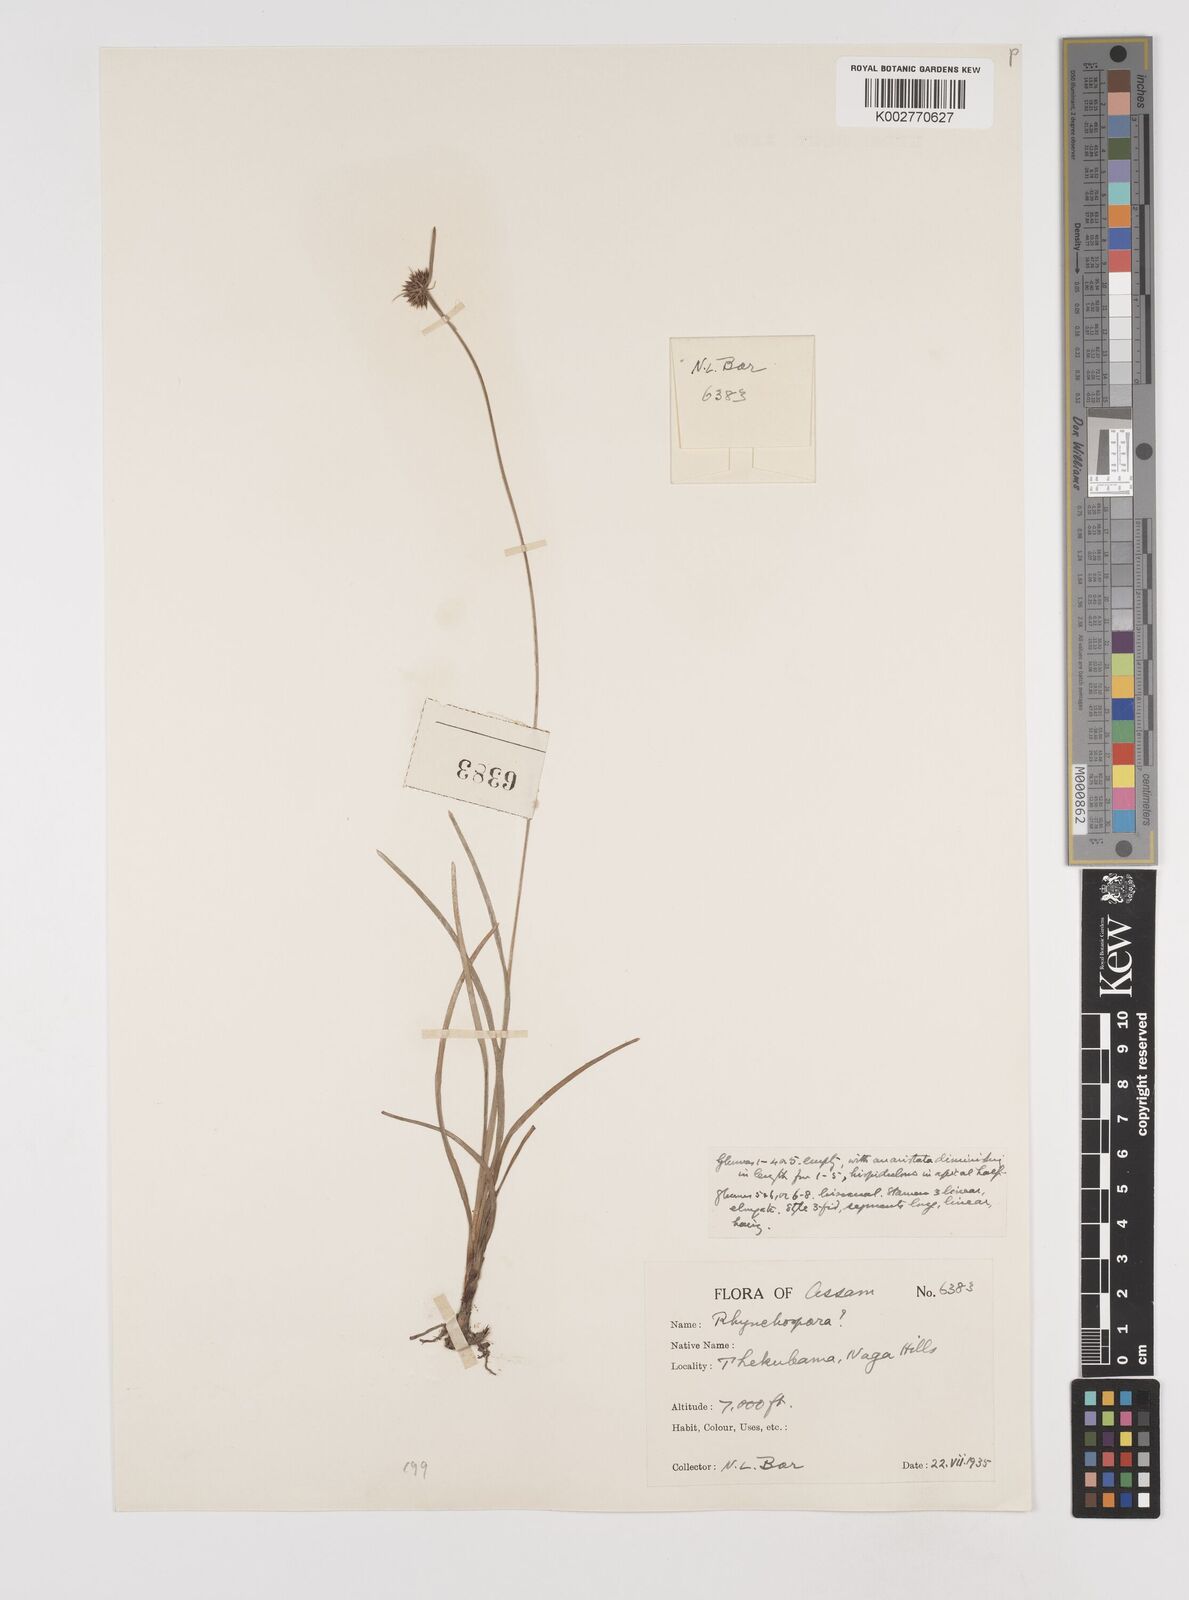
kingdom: Plantae
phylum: Tracheophyta
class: Liliopsida
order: Poales
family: Cyperaceae
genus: Rhynchospora
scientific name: Rhynchospora
